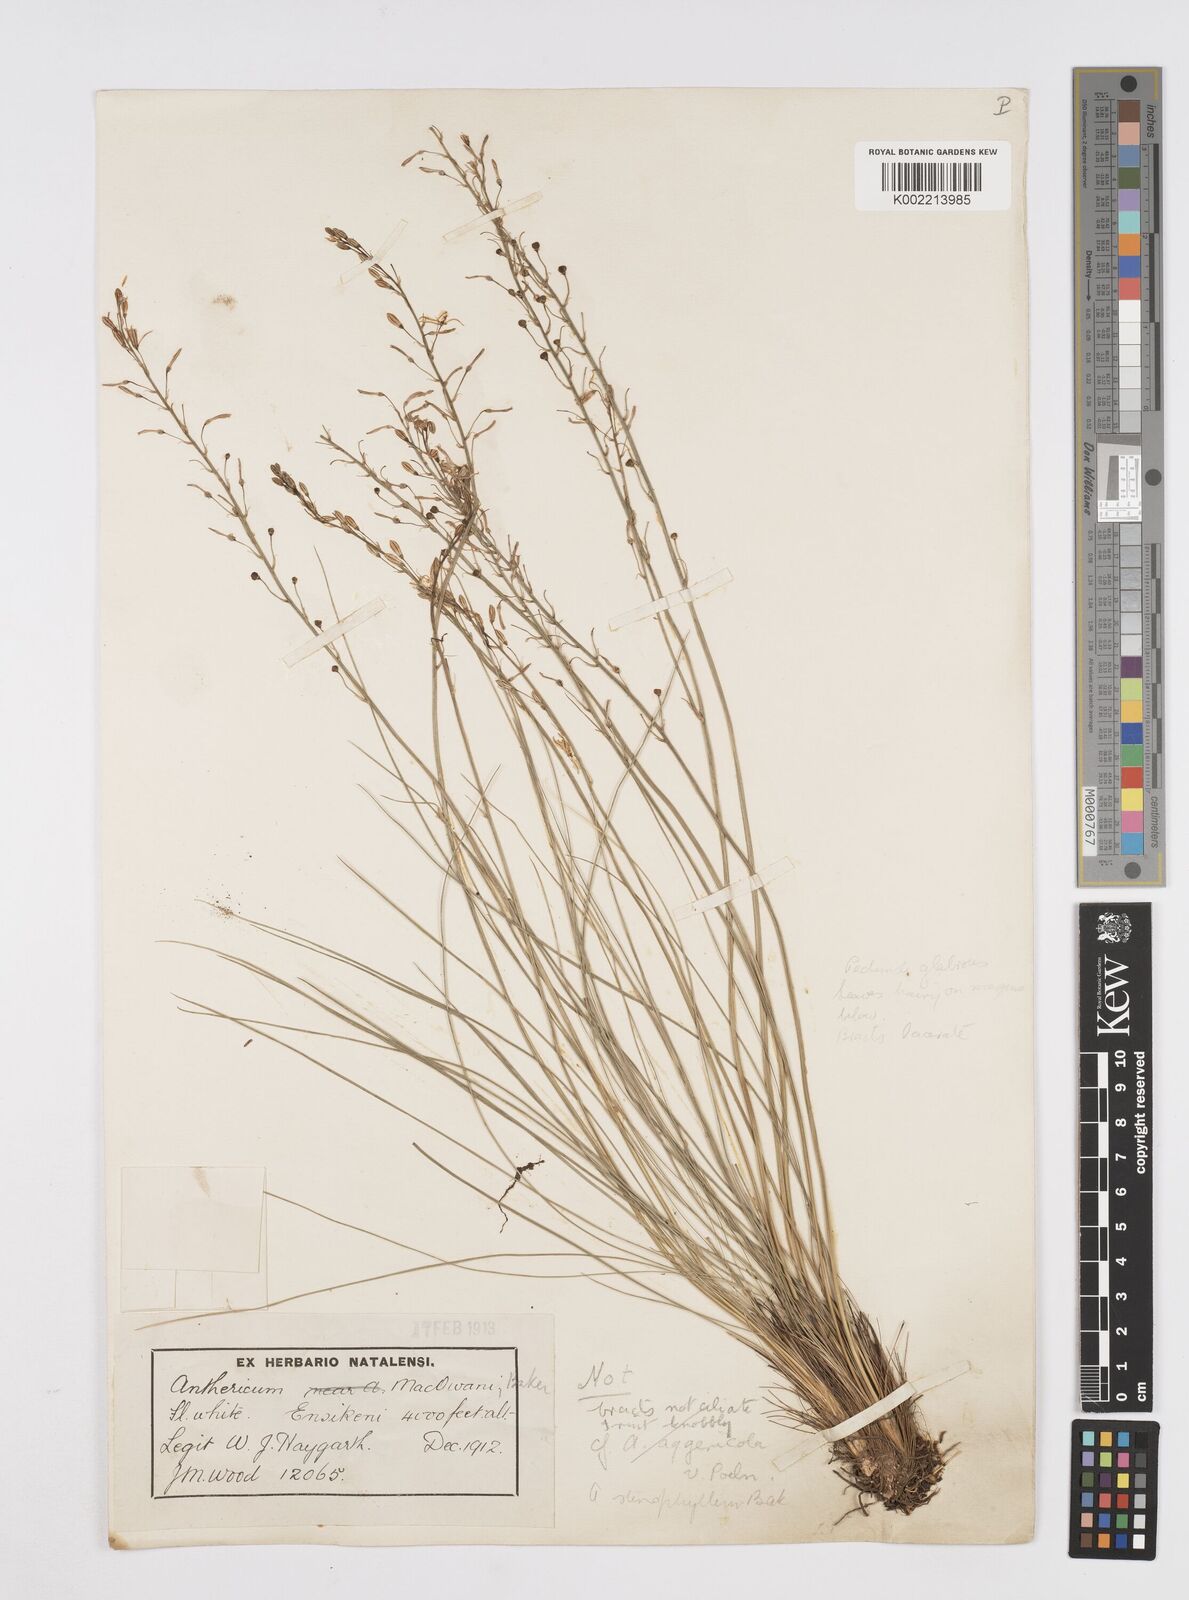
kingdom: Plantae
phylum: Tracheophyta
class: Liliopsida
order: Asparagales
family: Asphodelaceae
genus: Trachyandra
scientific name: Trachyandra
